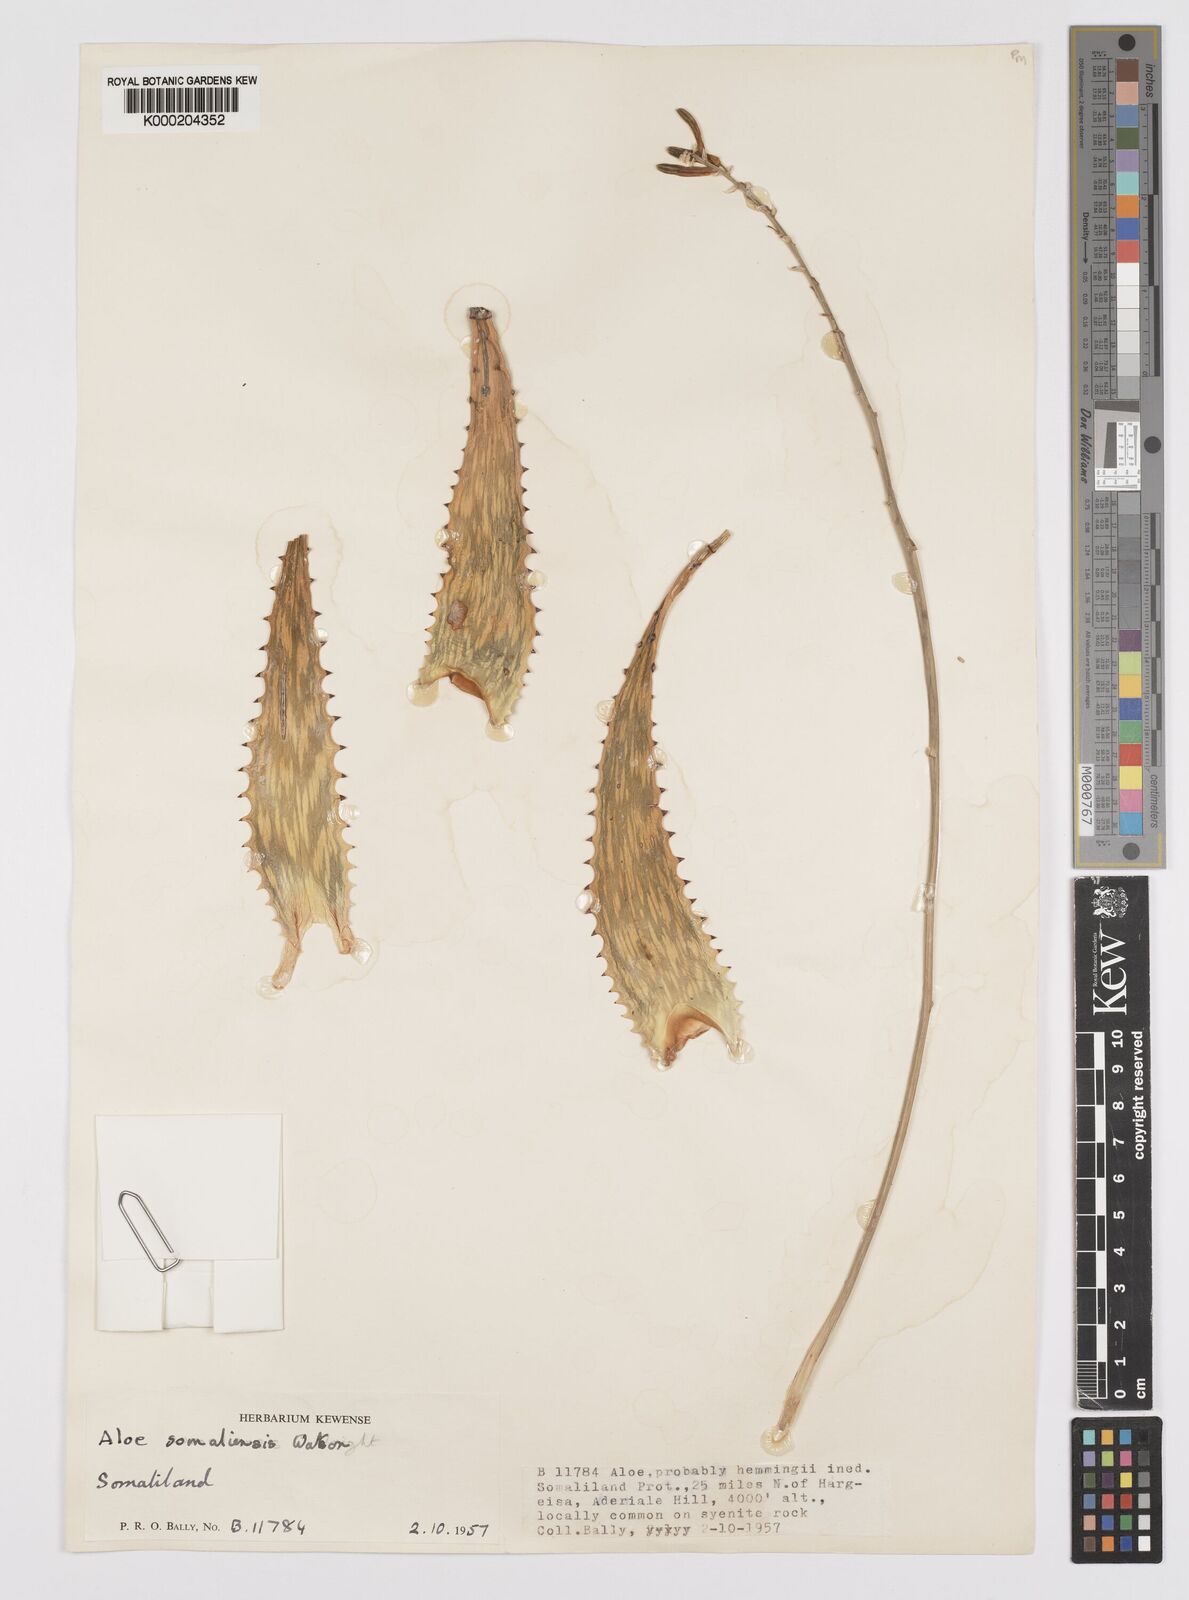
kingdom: Plantae
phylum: Tracheophyta
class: Liliopsida
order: Asparagales
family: Asphodelaceae
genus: Aloe
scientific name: Aloe somaliensis
